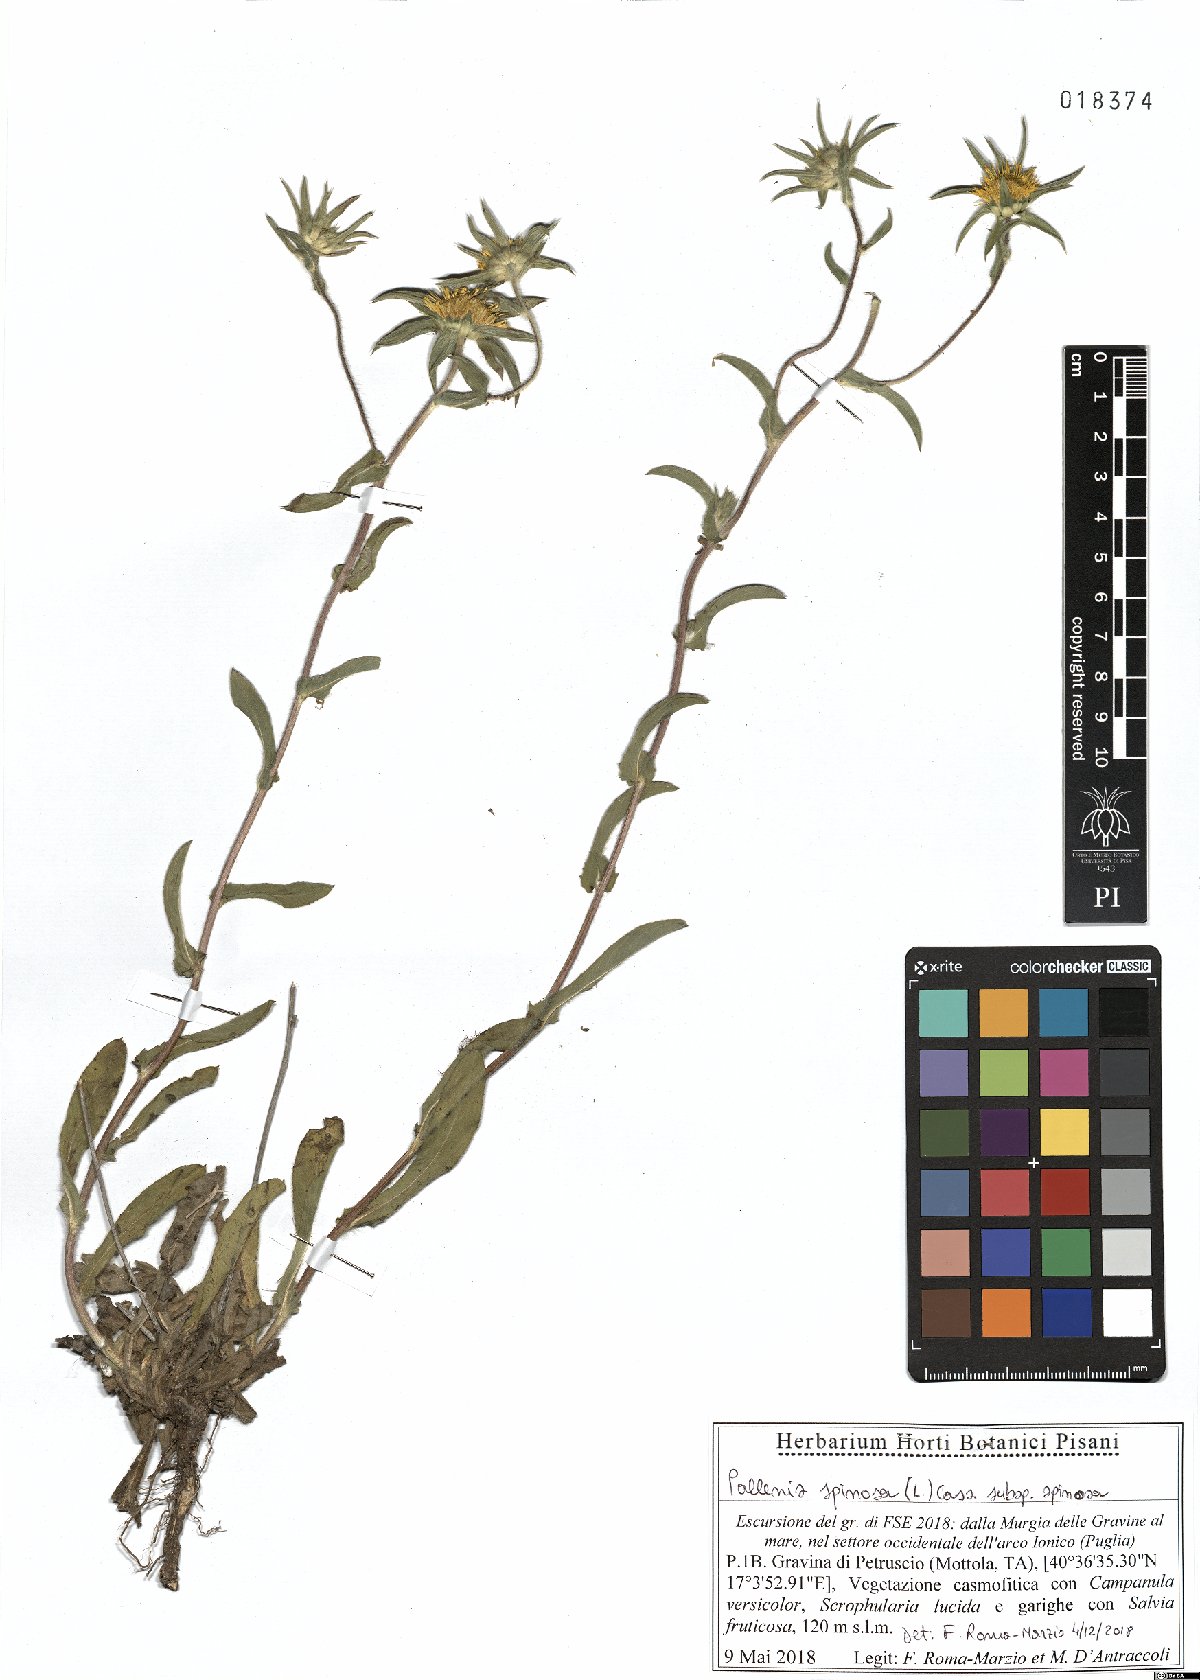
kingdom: Plantae
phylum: Tracheophyta
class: Magnoliopsida
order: Asterales
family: Asteraceae
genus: Pallenis
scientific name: Pallenis spinosa
